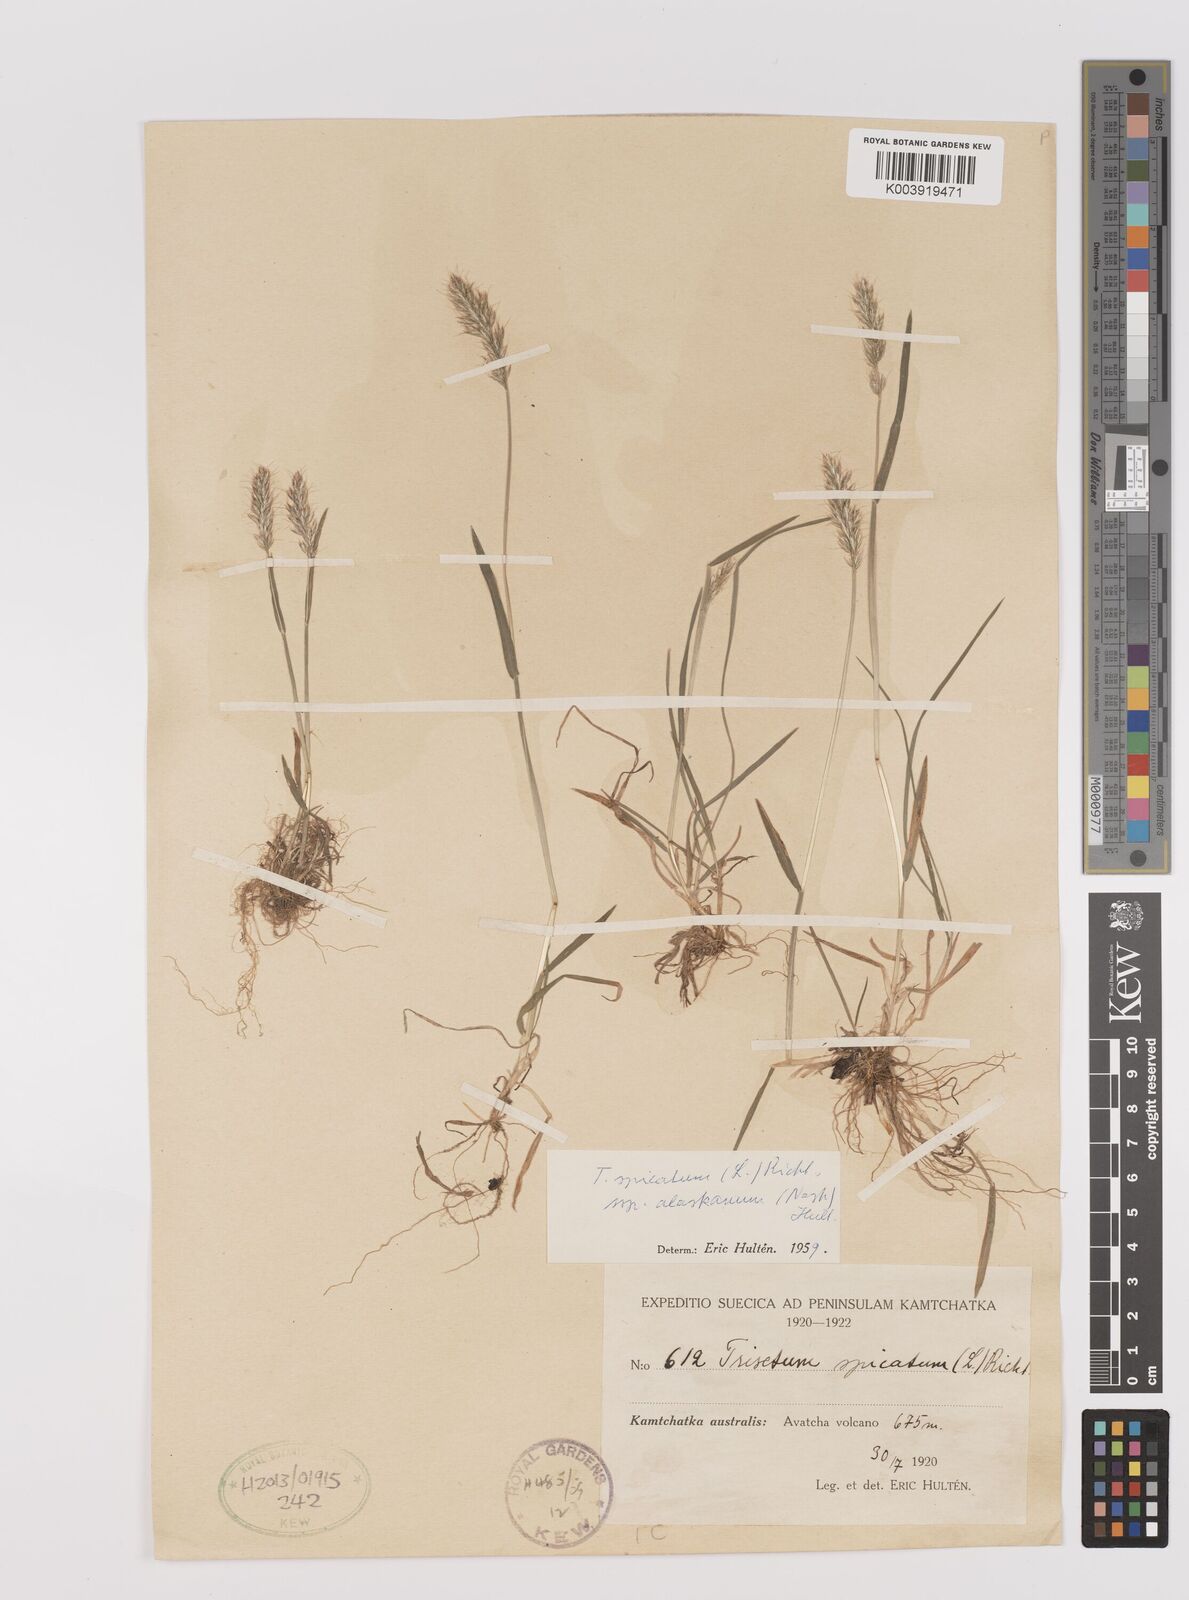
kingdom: Plantae
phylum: Tracheophyta
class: Liliopsida
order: Poales
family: Poaceae
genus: Koeleria
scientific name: Koeleria spicata
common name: Mountain trisetum
